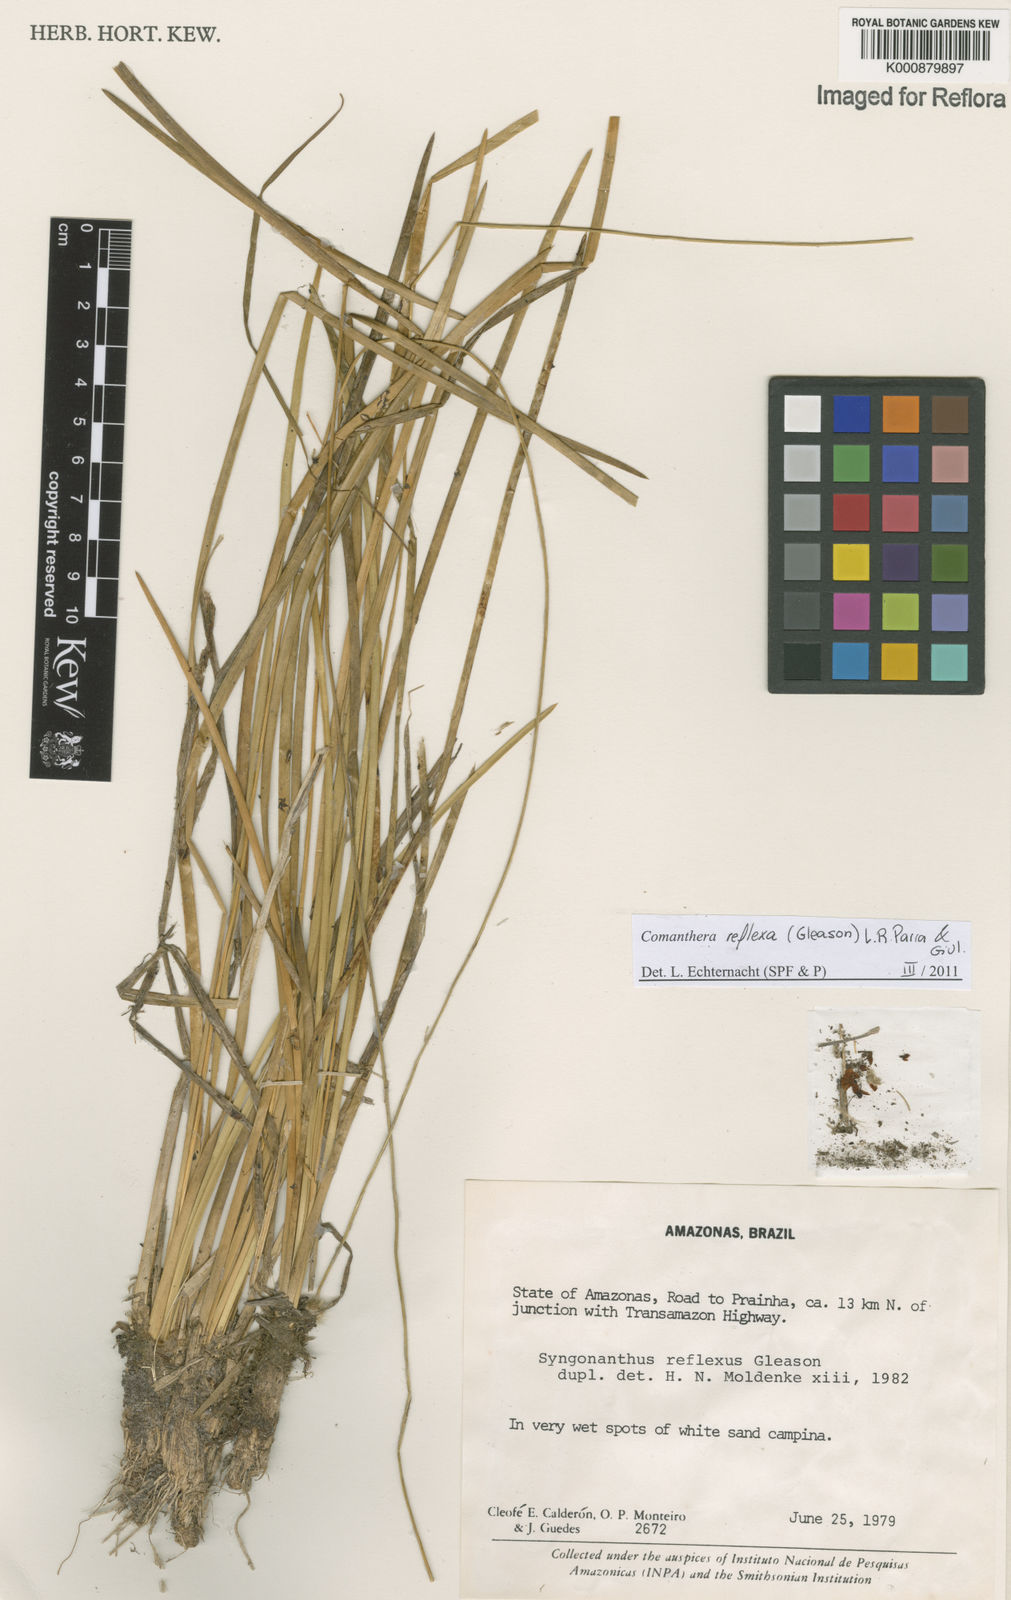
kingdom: Plantae
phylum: Tracheophyta
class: Liliopsida
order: Poales
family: Eriocaulaceae
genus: Comanthera
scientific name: Comanthera reflexa
